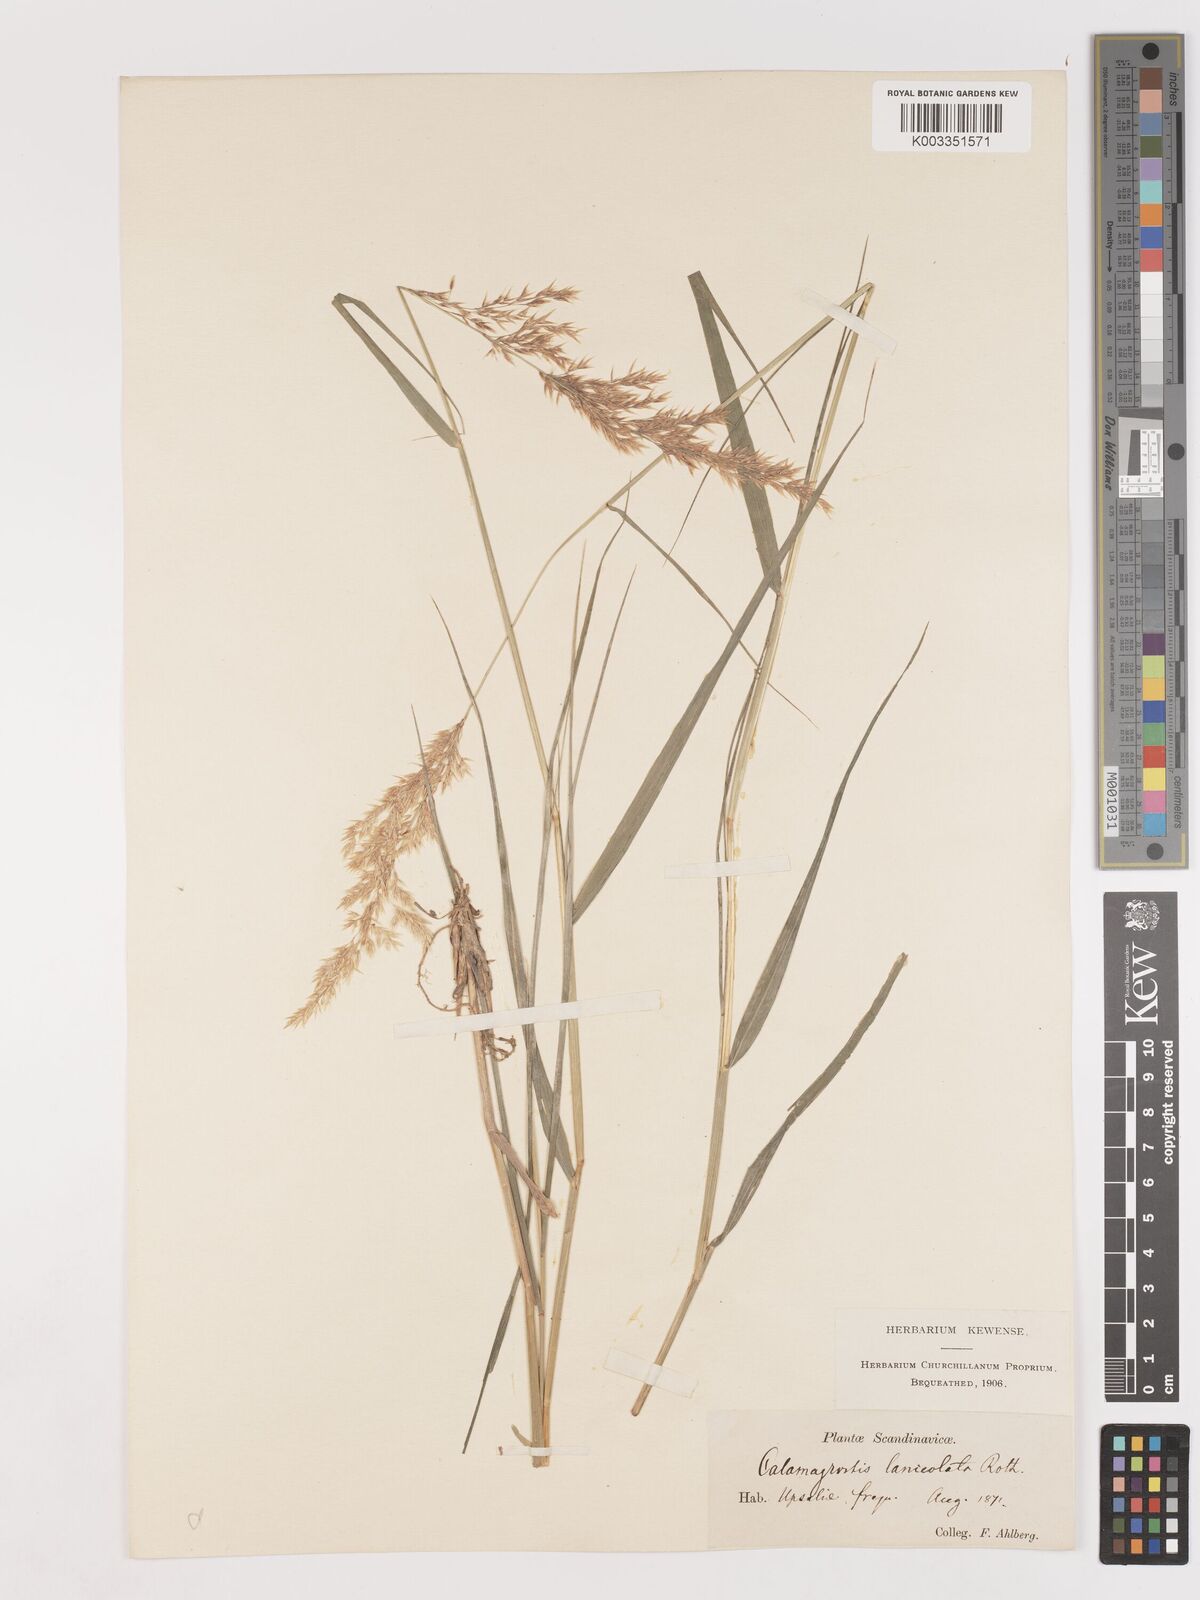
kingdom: Plantae
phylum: Tracheophyta
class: Liliopsida
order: Poales
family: Poaceae
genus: Calamagrostis
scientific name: Calamagrostis canescens
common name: Purple small-reed
